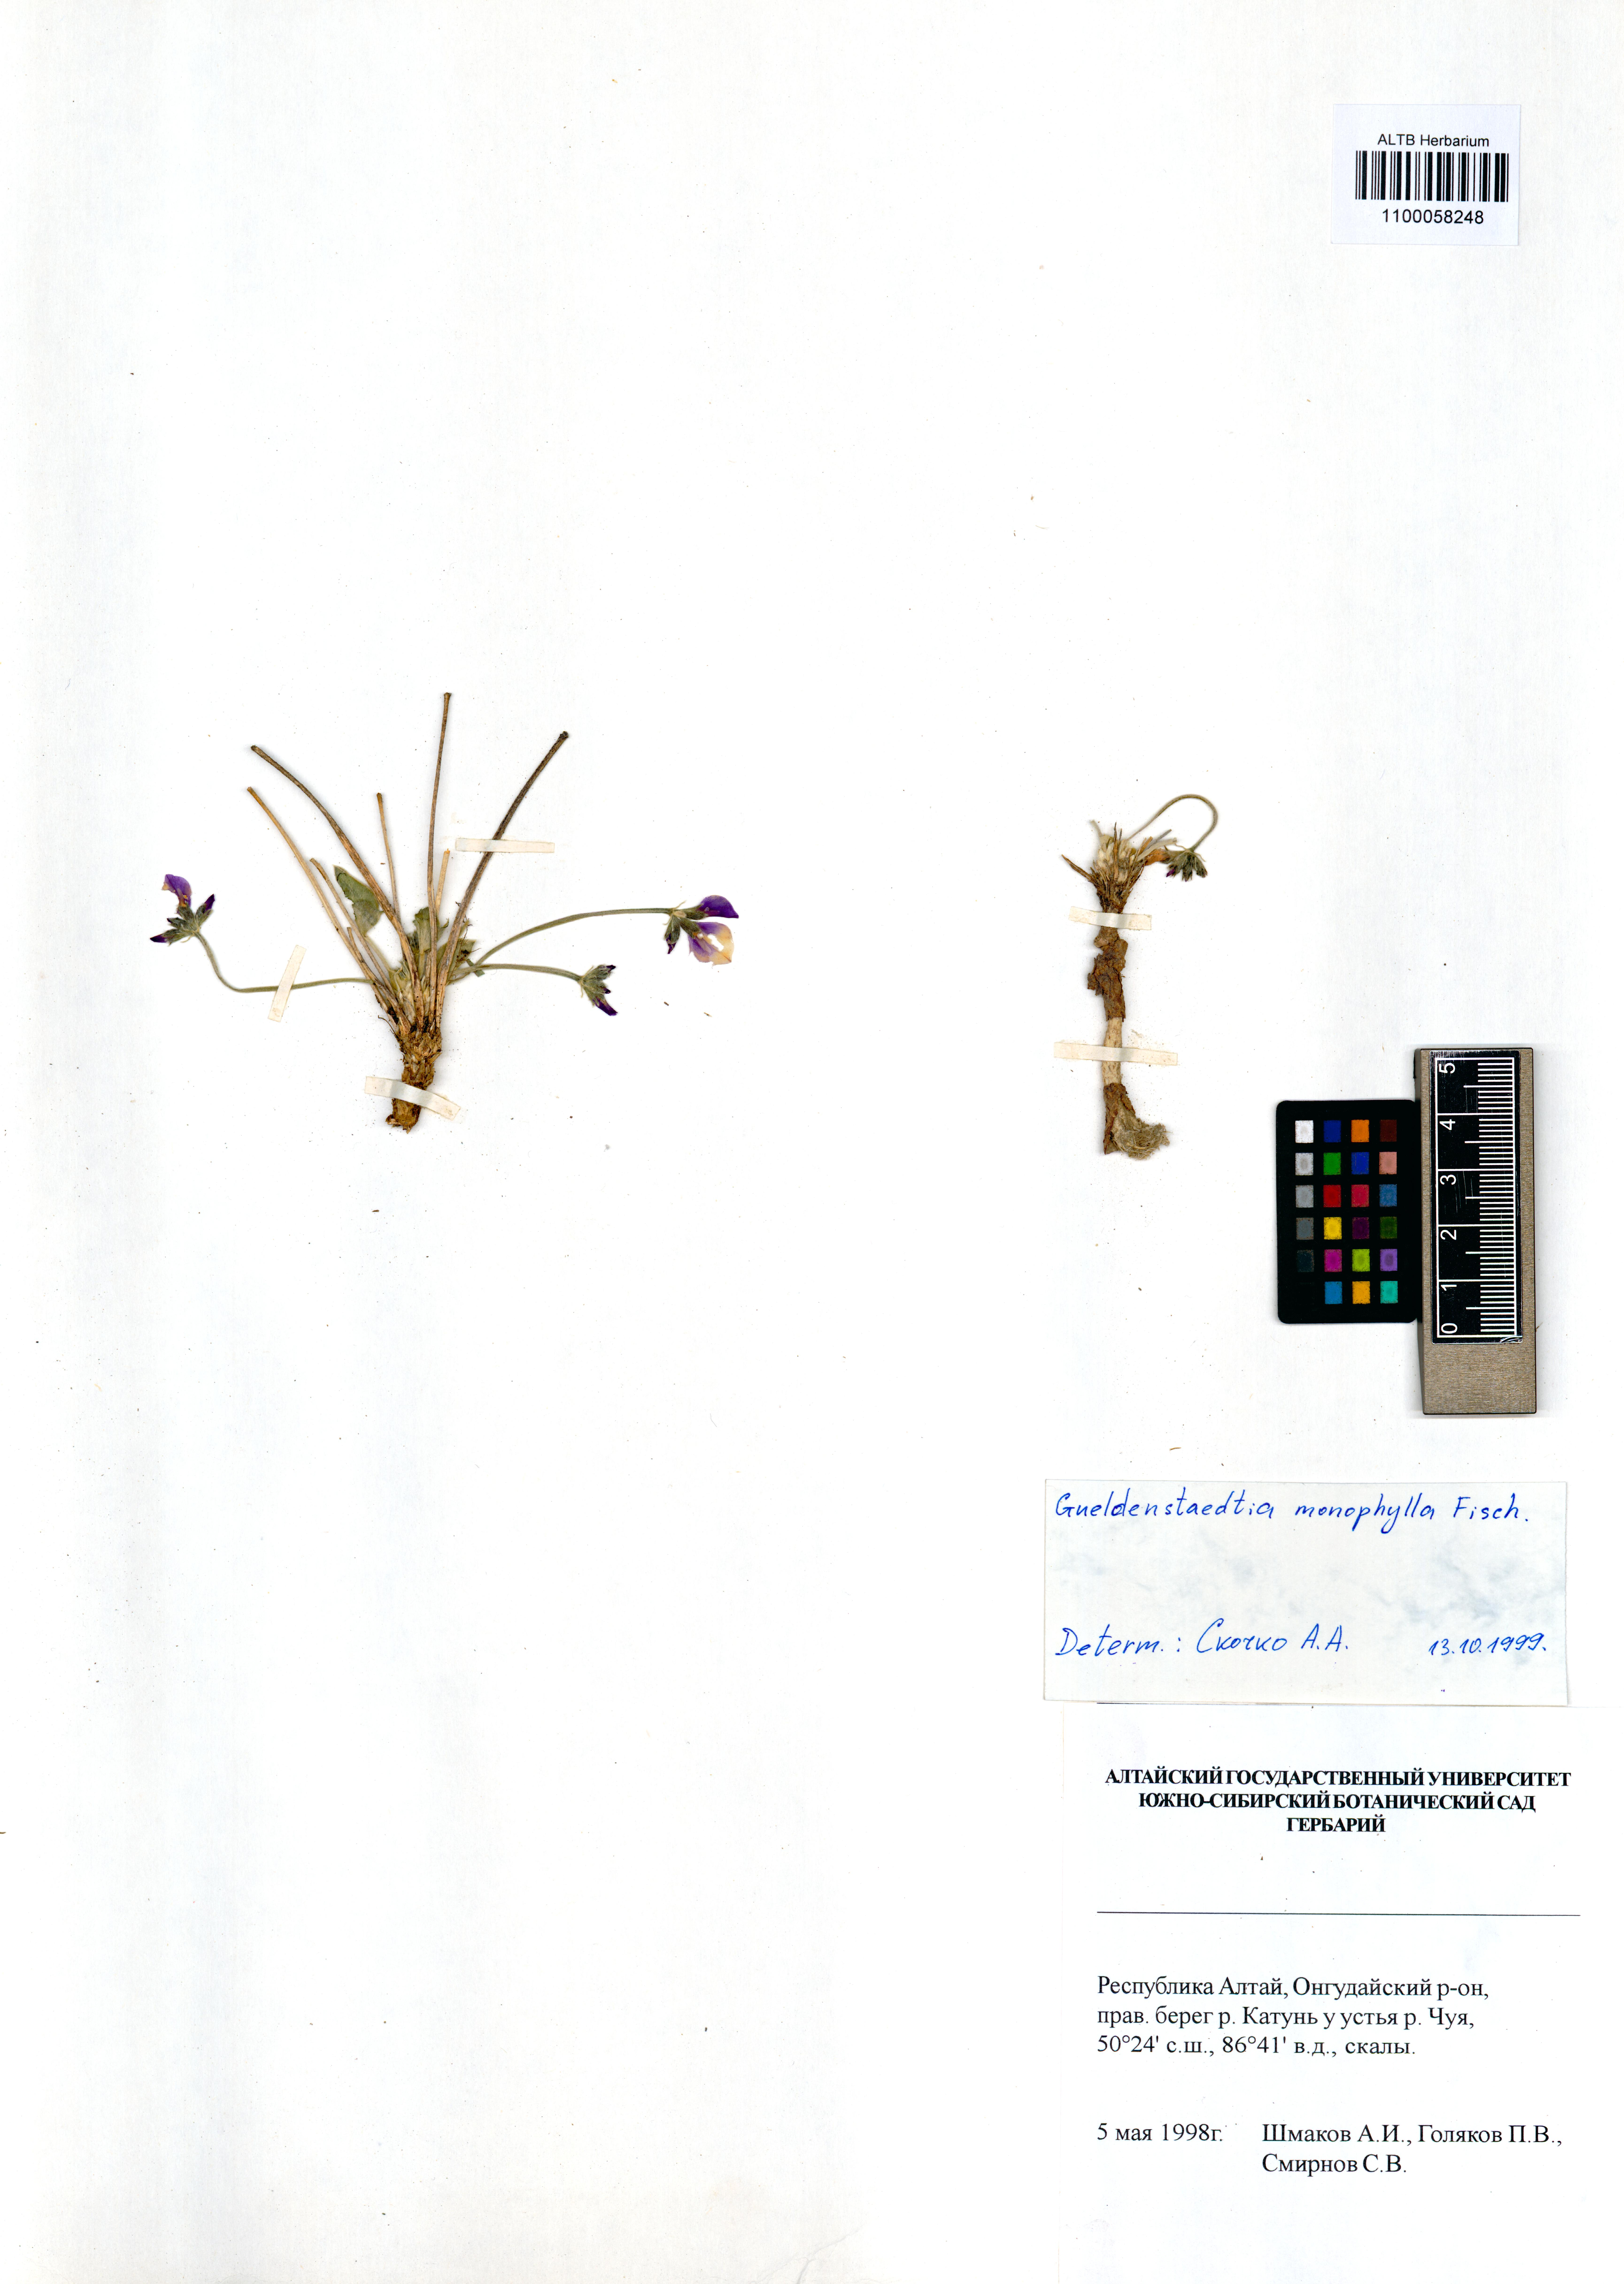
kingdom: Plantae
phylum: Tracheophyta
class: Magnoliopsida
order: Fabales
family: Fabaceae
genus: Gueldenstaedtia
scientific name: Gueldenstaedtia monophylla
